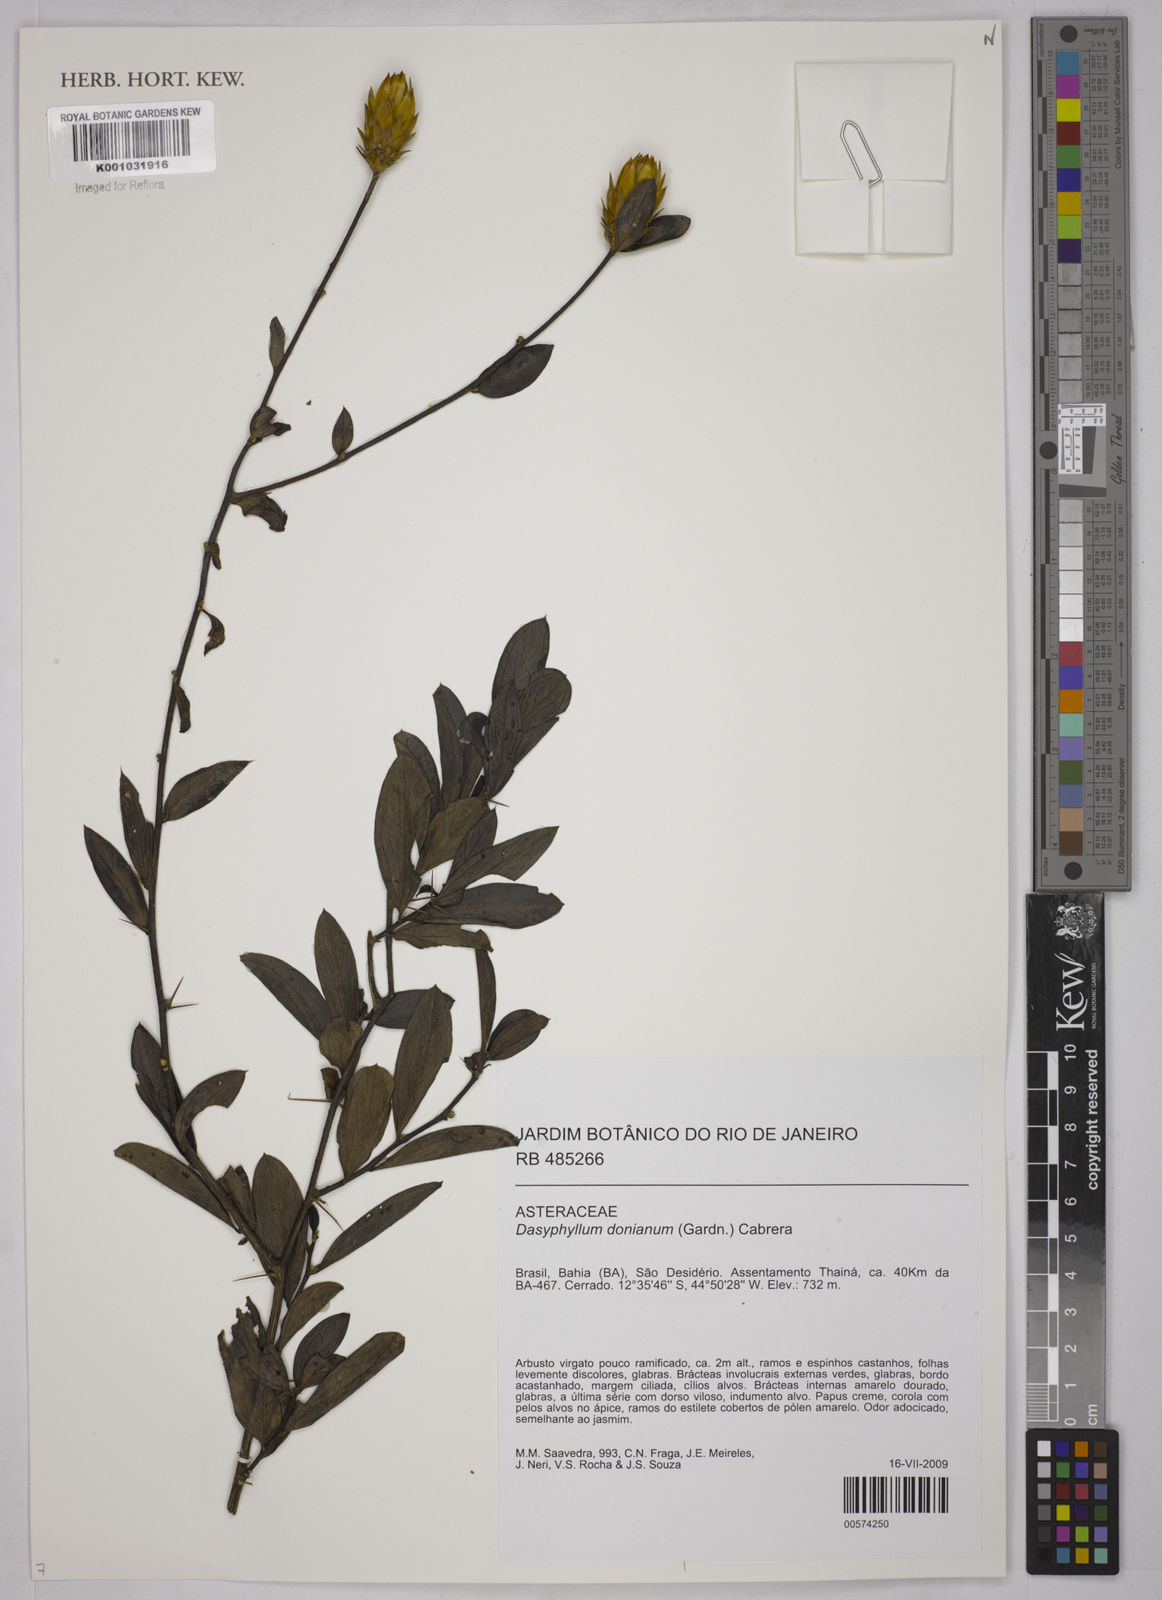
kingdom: Plantae
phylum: Tracheophyta
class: Magnoliopsida
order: Asterales
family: Asteraceae
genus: Dasyphyllum
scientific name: Dasyphyllum donianum
